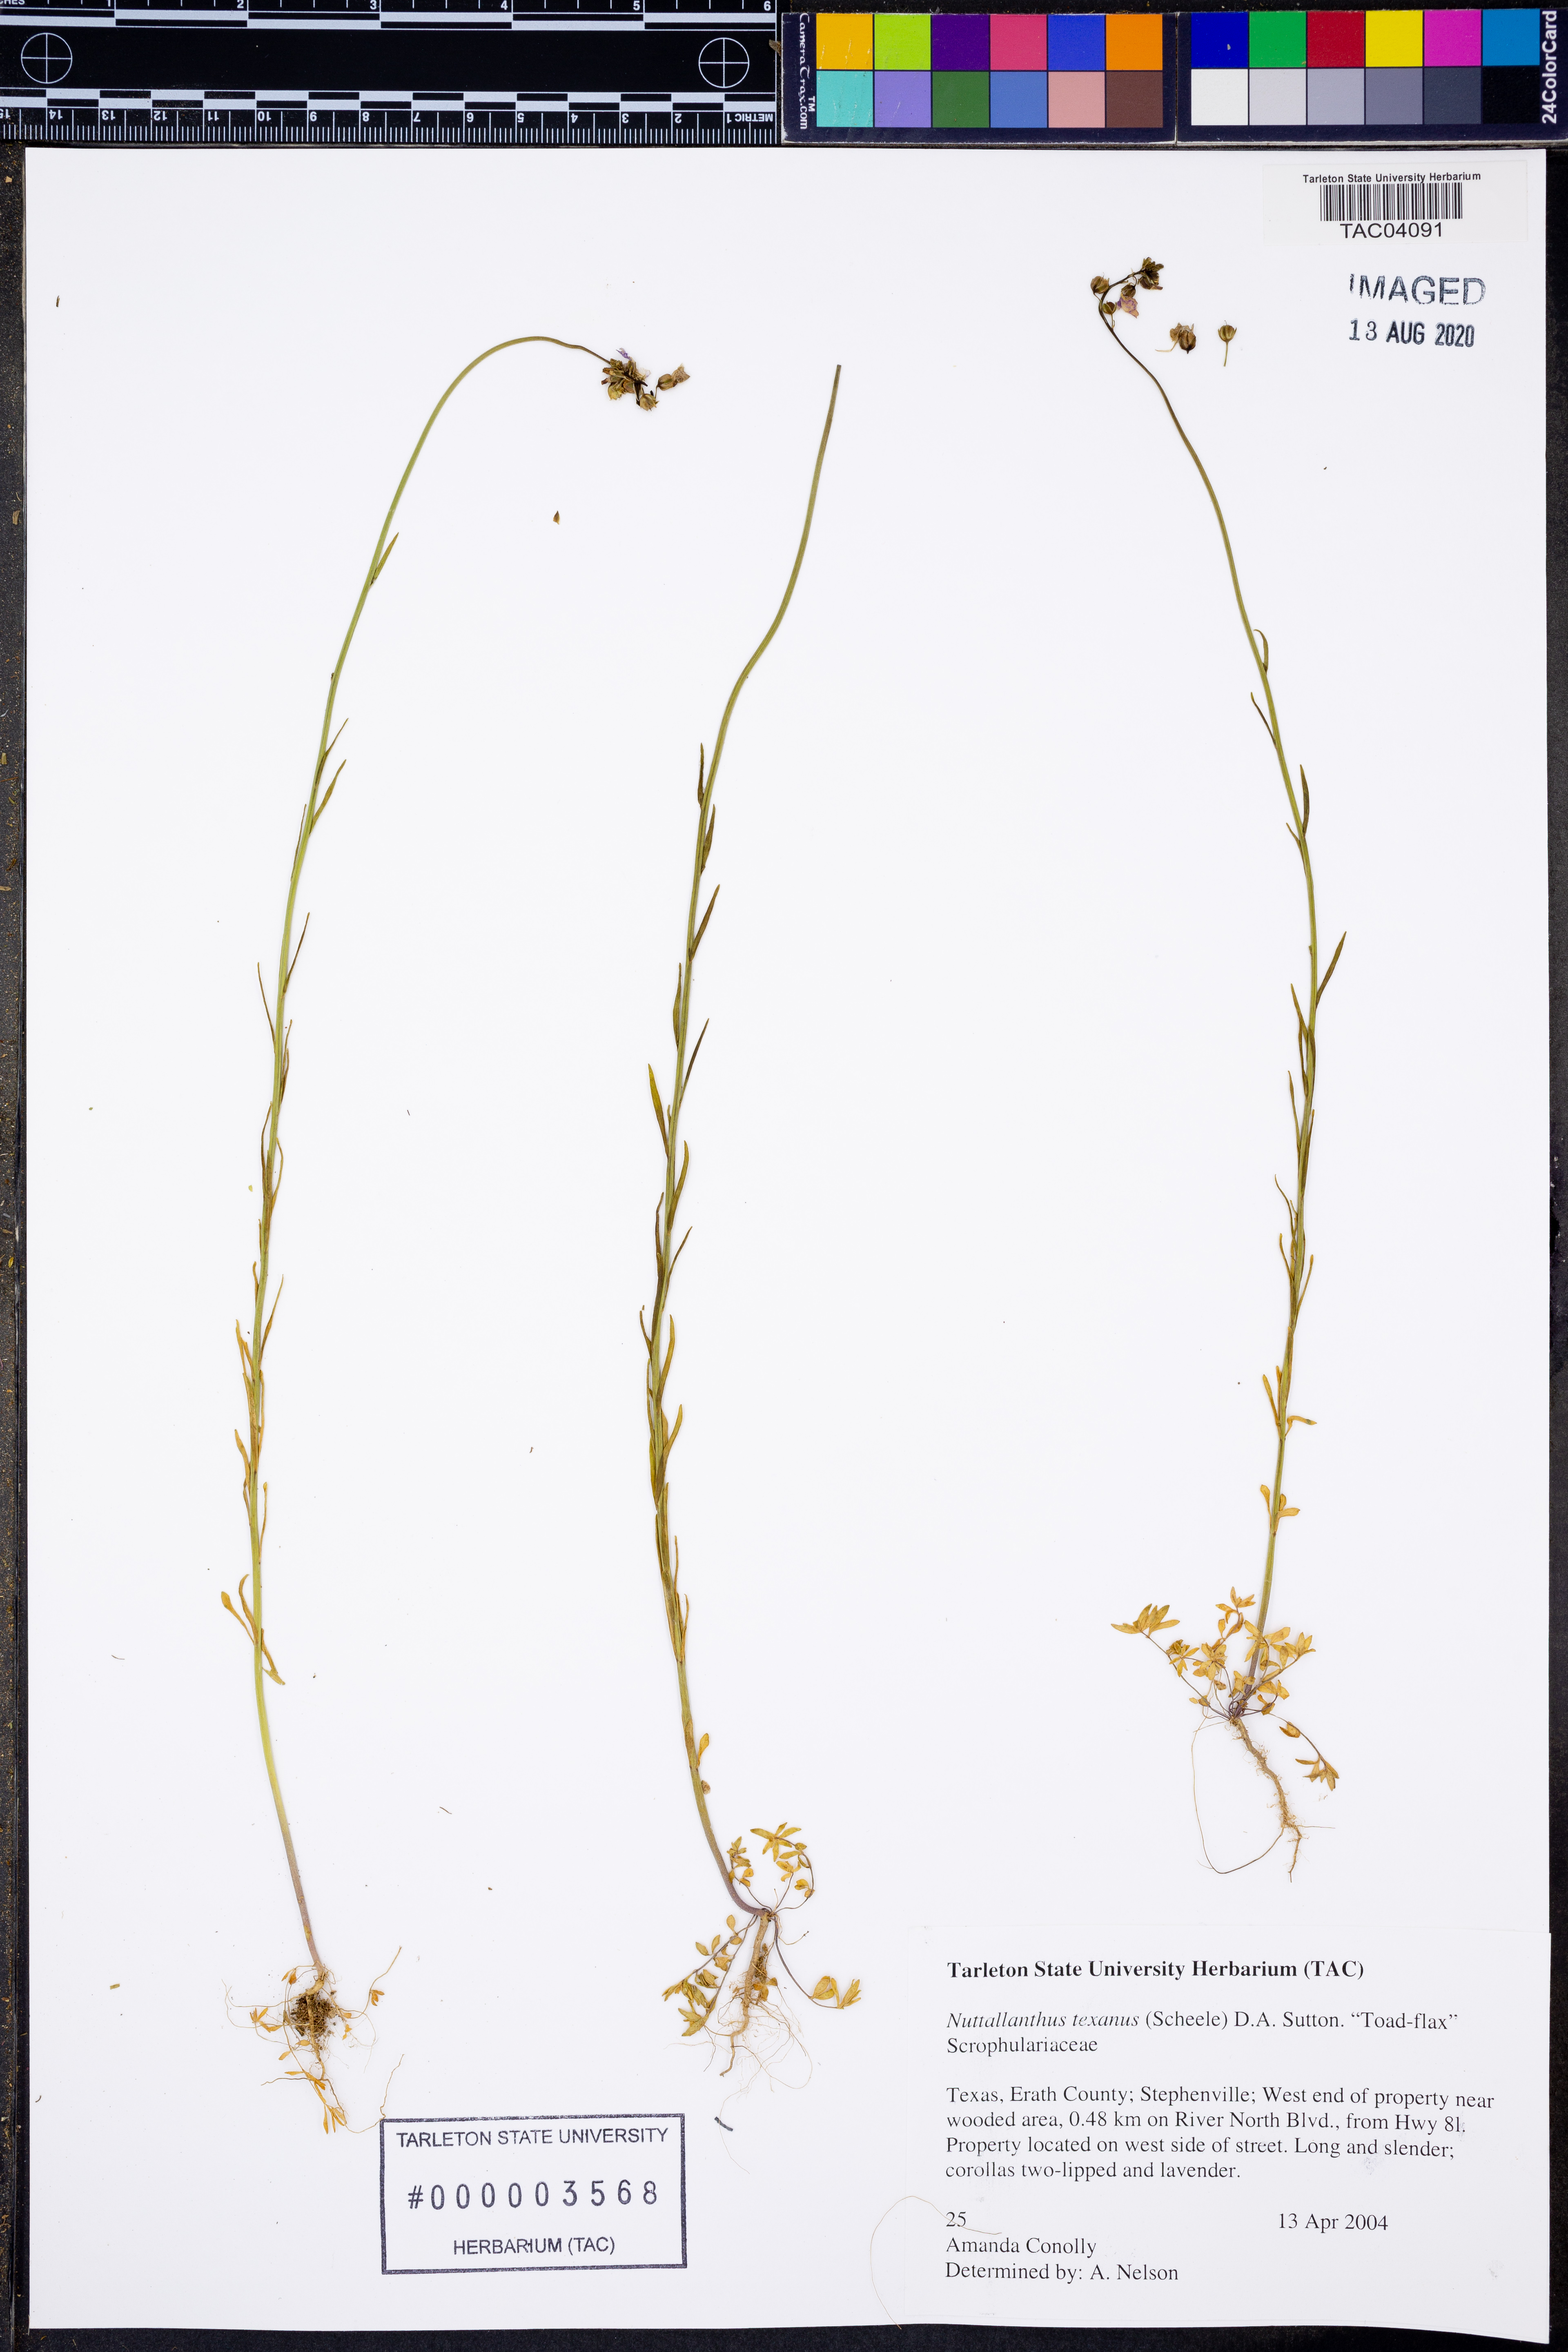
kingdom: Plantae
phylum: Tracheophyta
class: Magnoliopsida
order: Lamiales
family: Plantaginaceae
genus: Nuttallanthus
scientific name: Nuttallanthus texanus
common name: Texas toadflax
